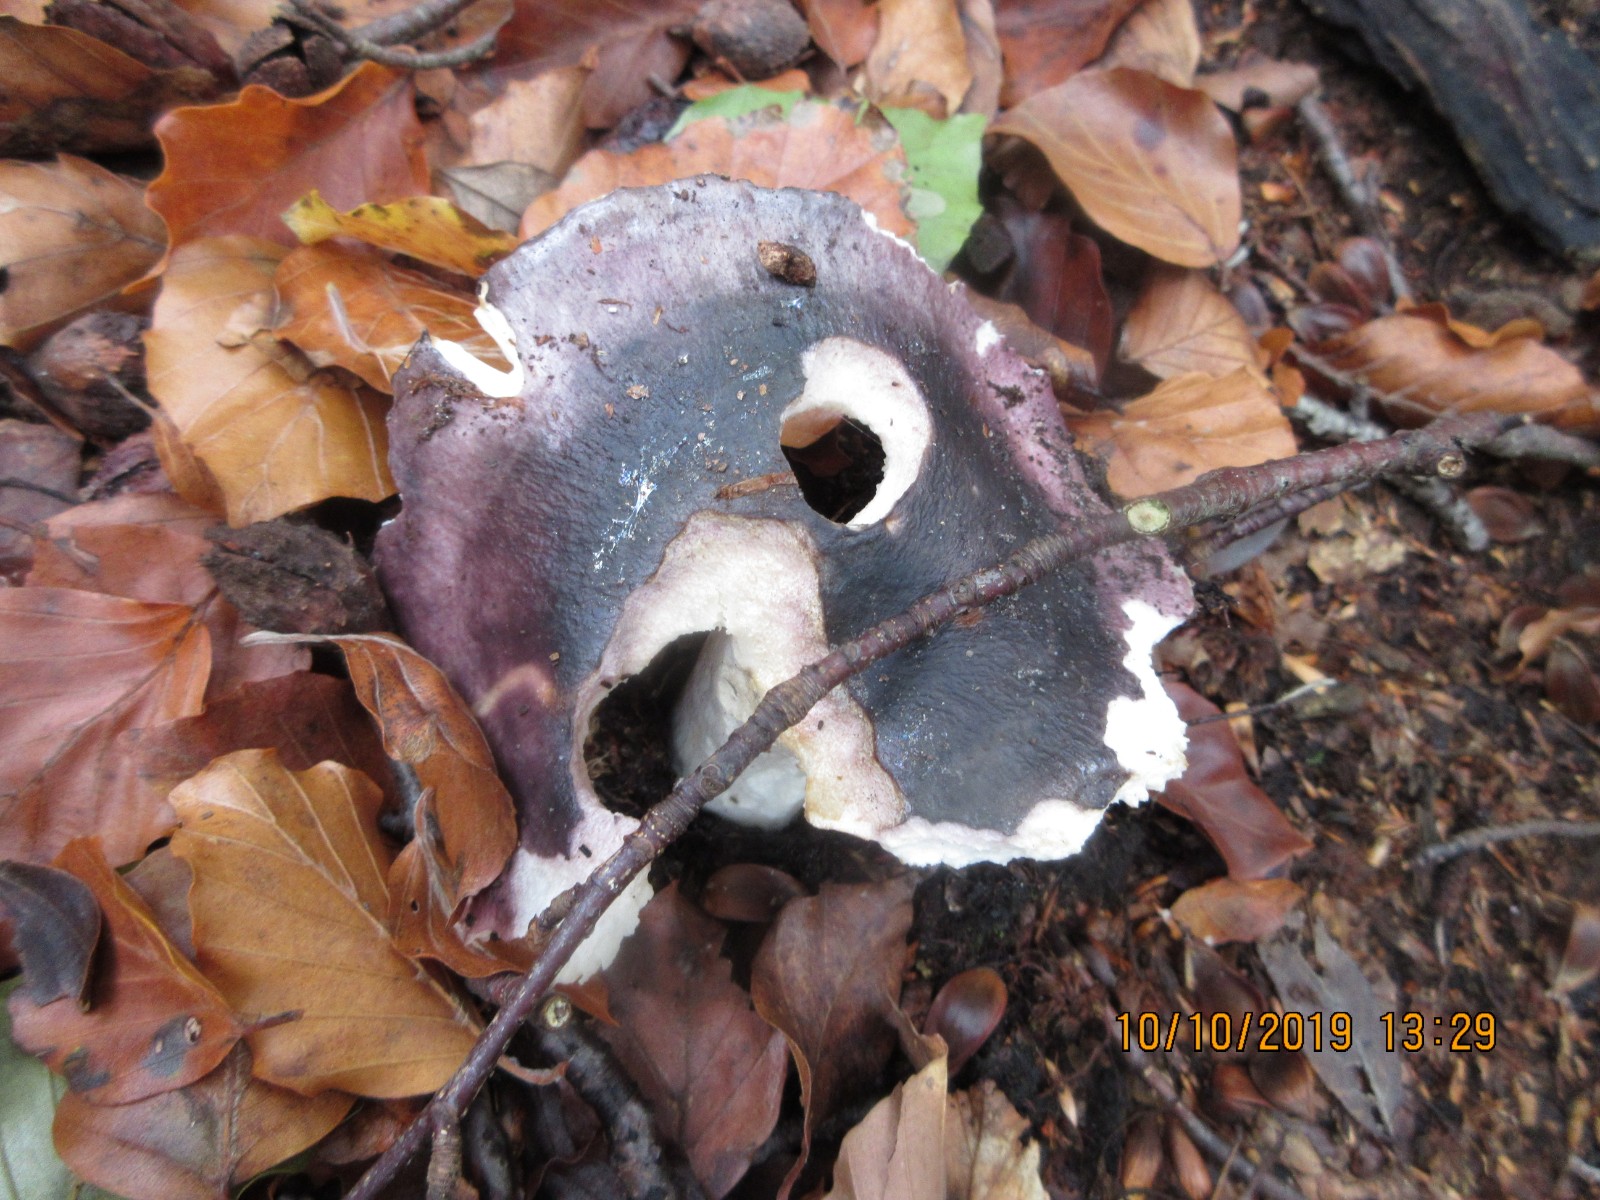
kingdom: Fungi
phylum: Basidiomycota
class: Agaricomycetes
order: Russulales
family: Russulaceae
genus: Russula
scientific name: Russula cyanoxantha
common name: broget skørhat
